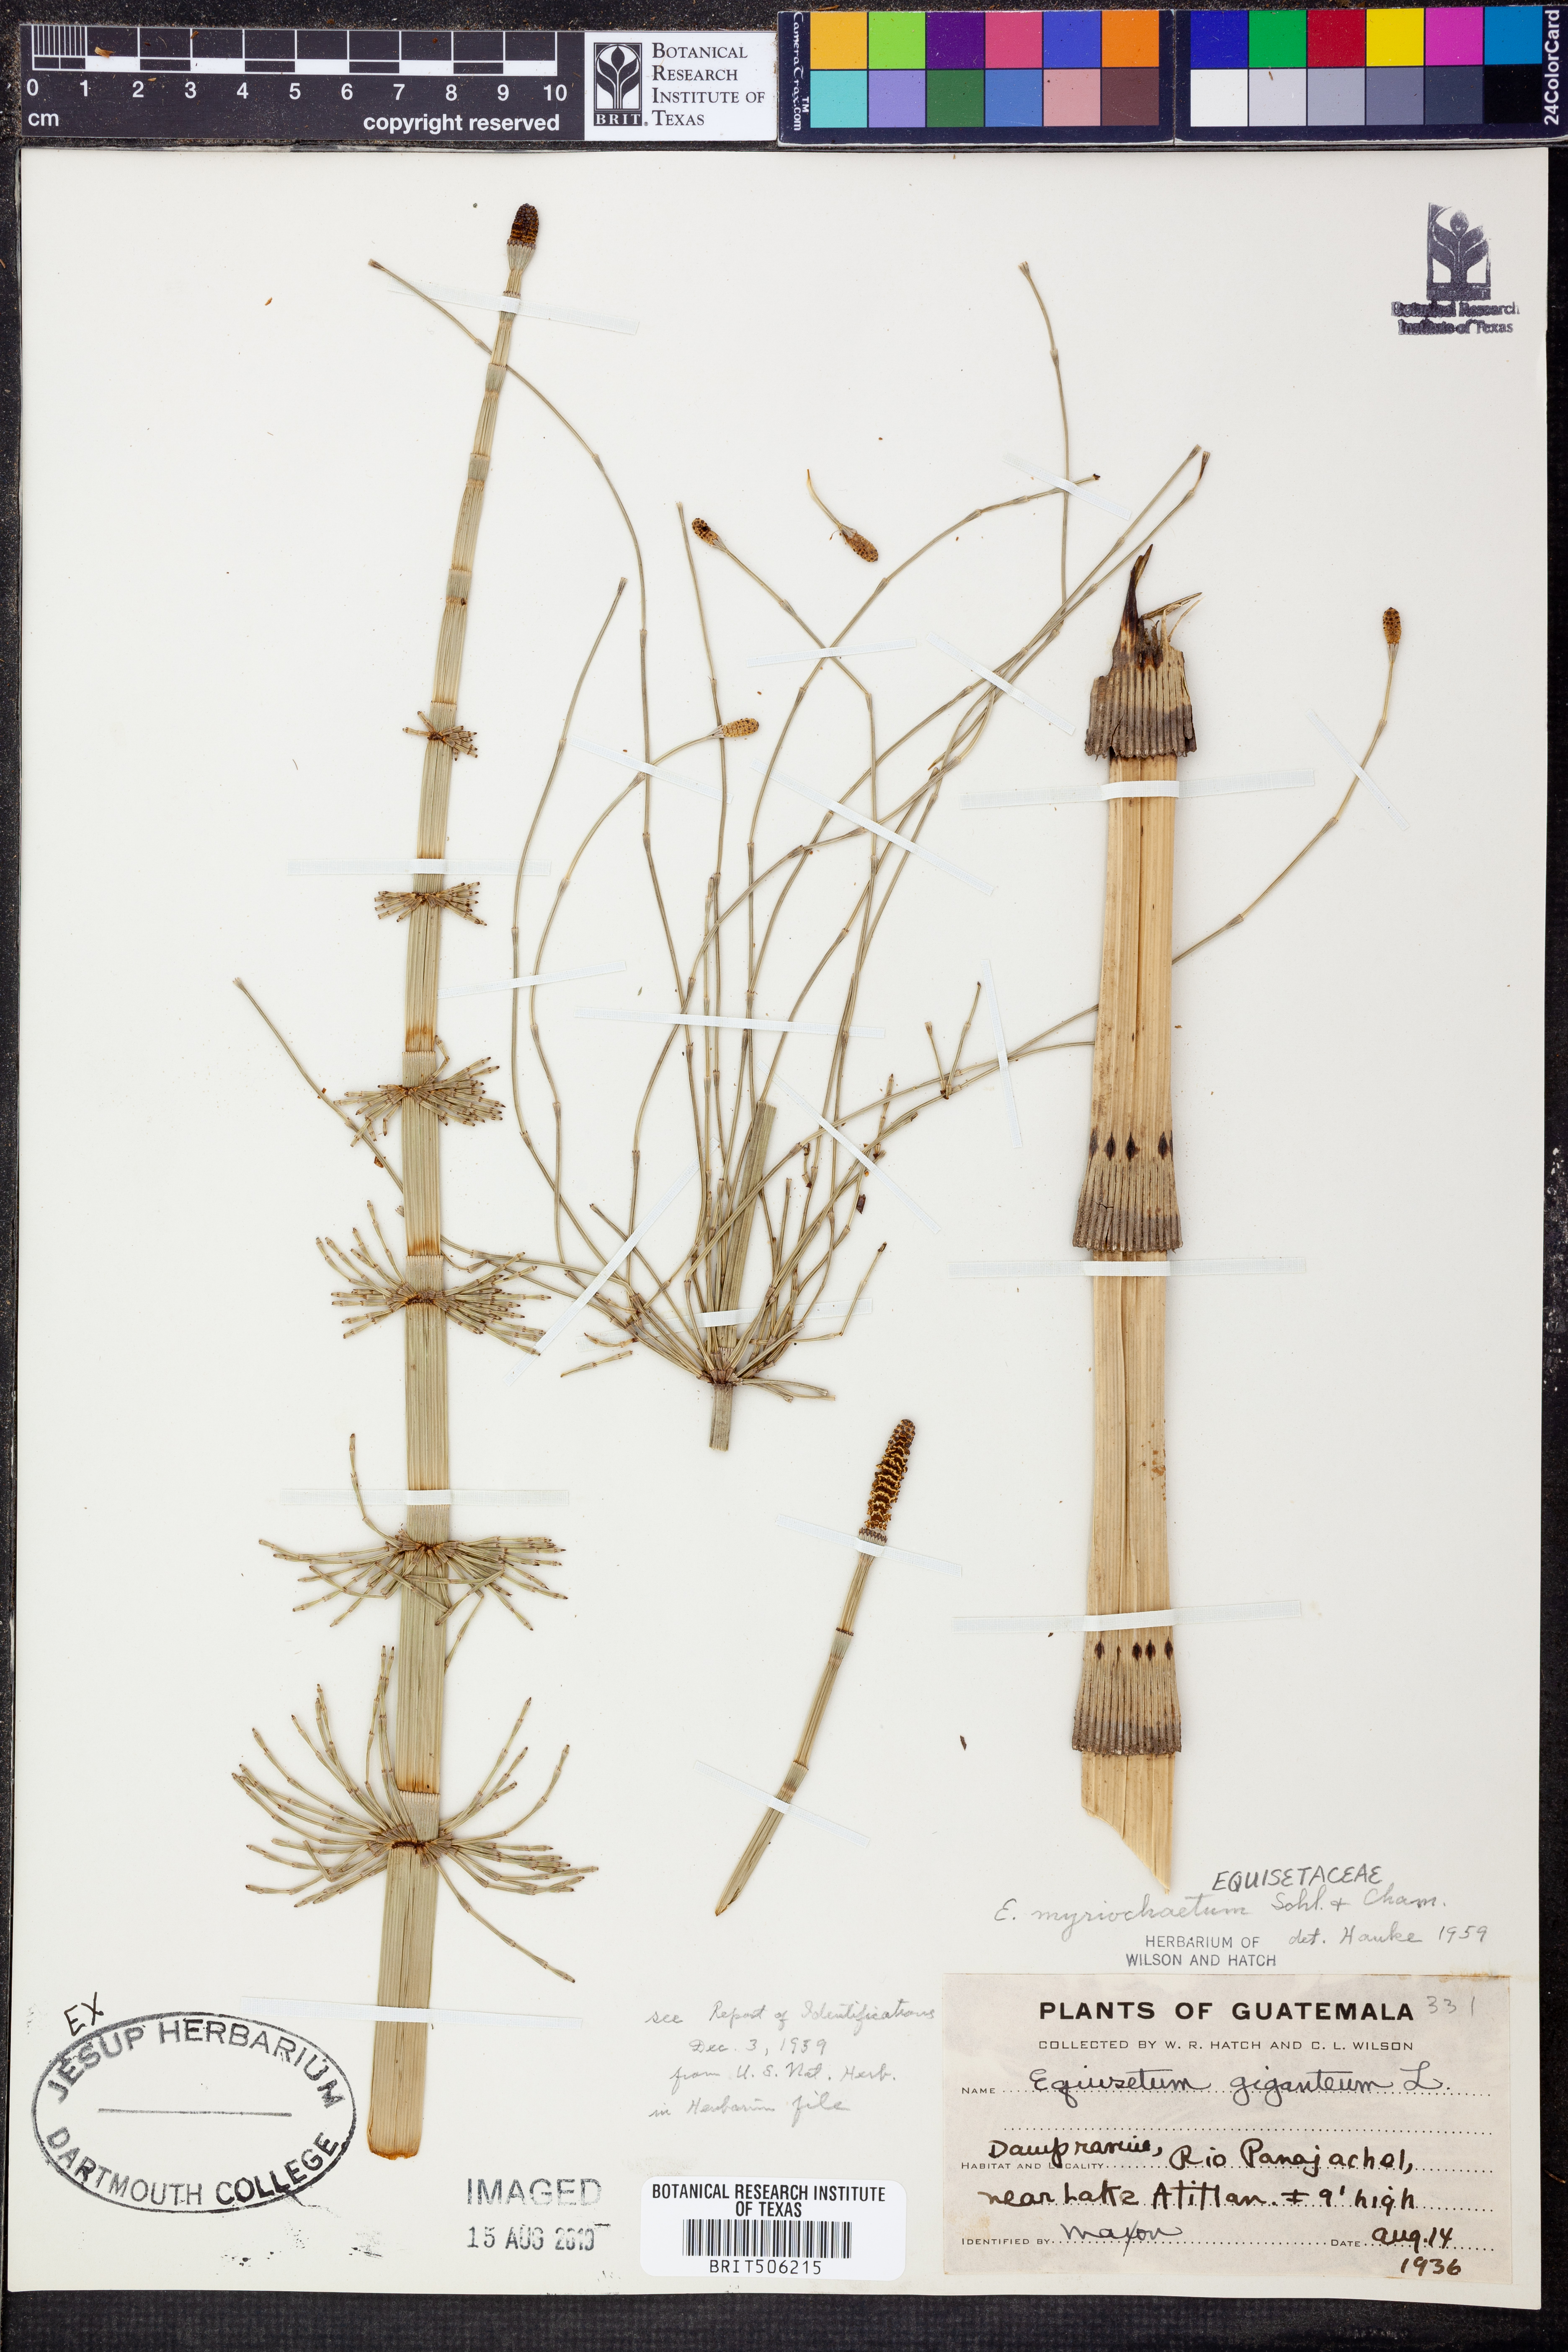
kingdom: Plantae
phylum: Tracheophyta
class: Polypodiopsida
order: Equisetales
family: Equisetaceae
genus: Equisetum
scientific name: Equisetum myriochaetum
